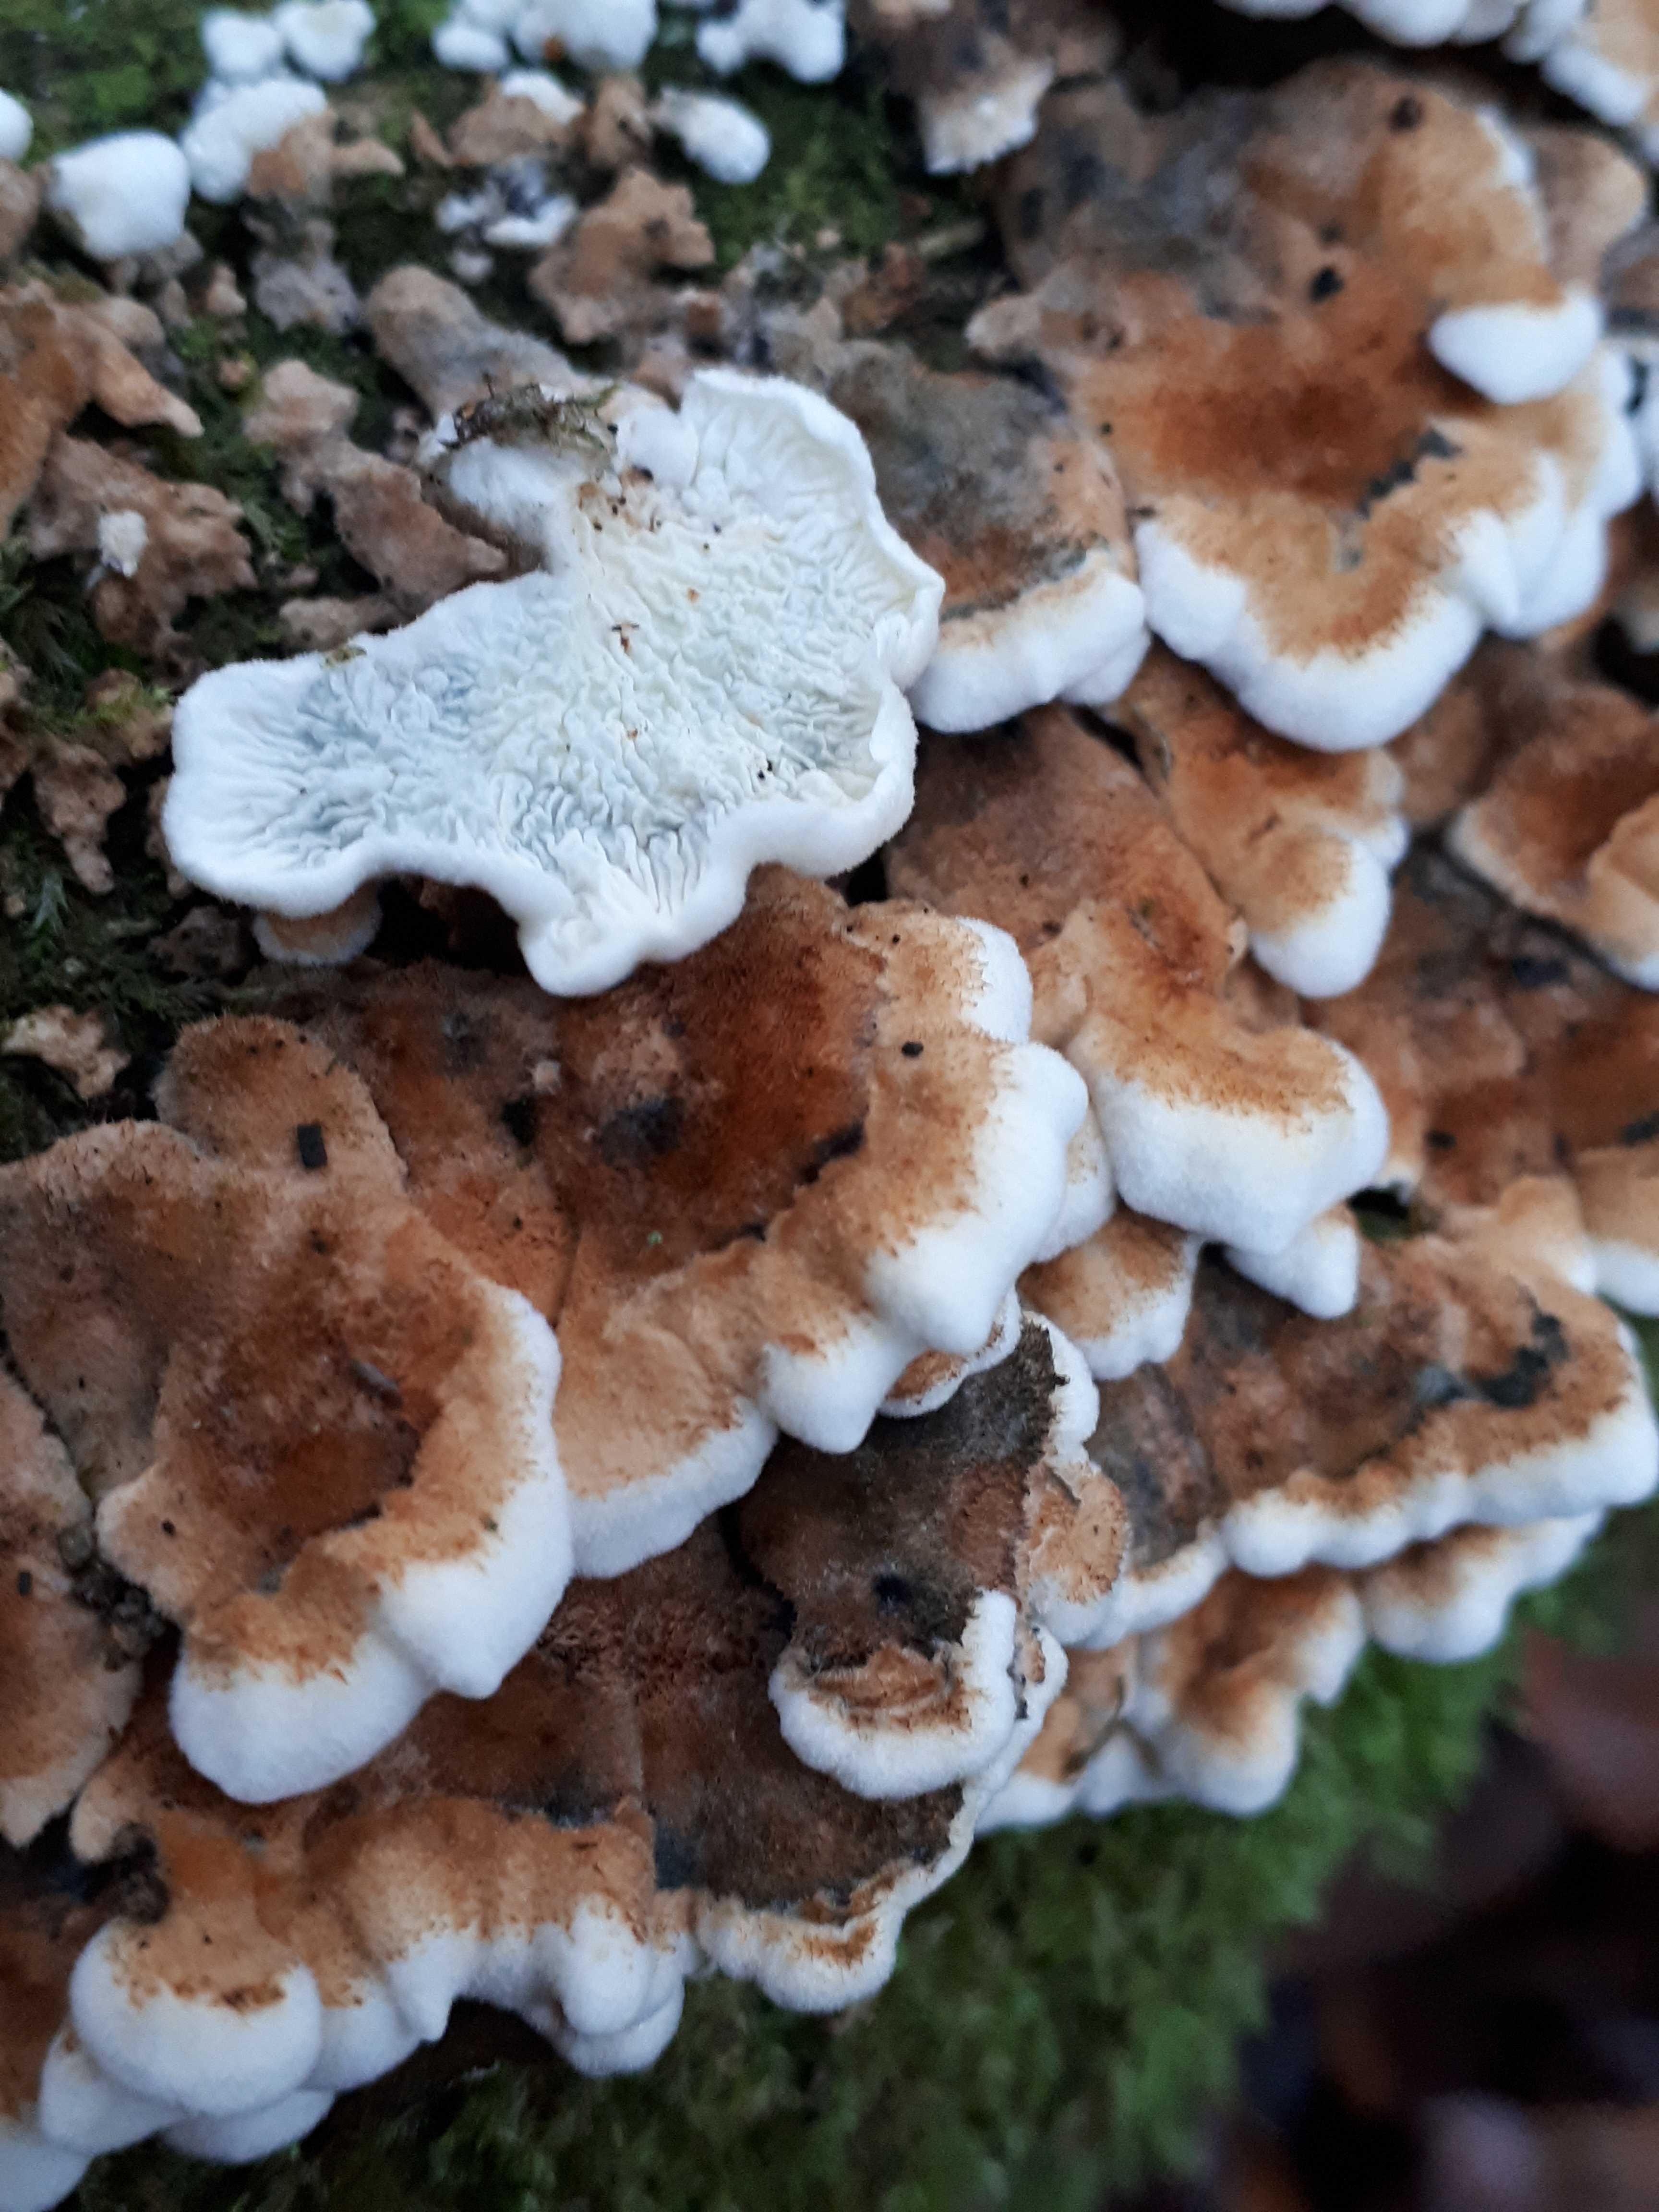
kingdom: Fungi
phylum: Basidiomycota
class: Agaricomycetes
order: Amylocorticiales
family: Amylocorticiaceae
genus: Plicaturopsis
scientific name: Plicaturopsis crispa
